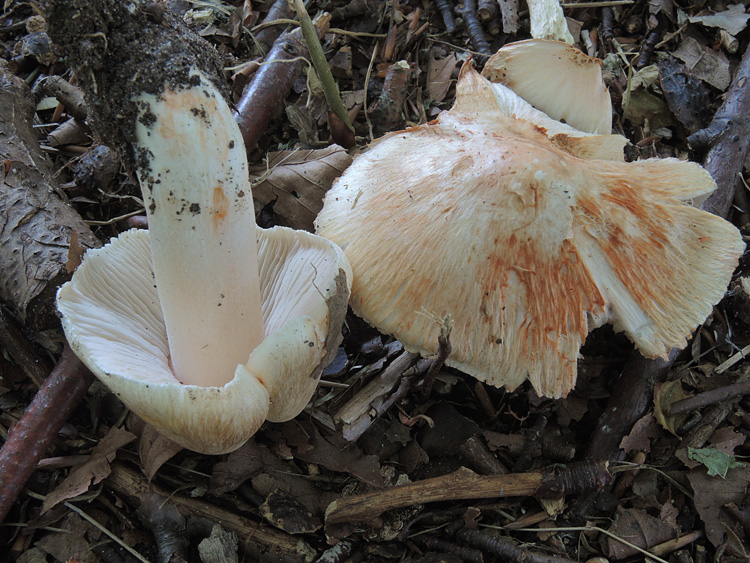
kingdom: Fungi
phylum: Basidiomycota
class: Agaricomycetes
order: Agaricales
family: Inocybaceae
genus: Inosperma
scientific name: Inosperma erubescens
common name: giftig trævlhat
